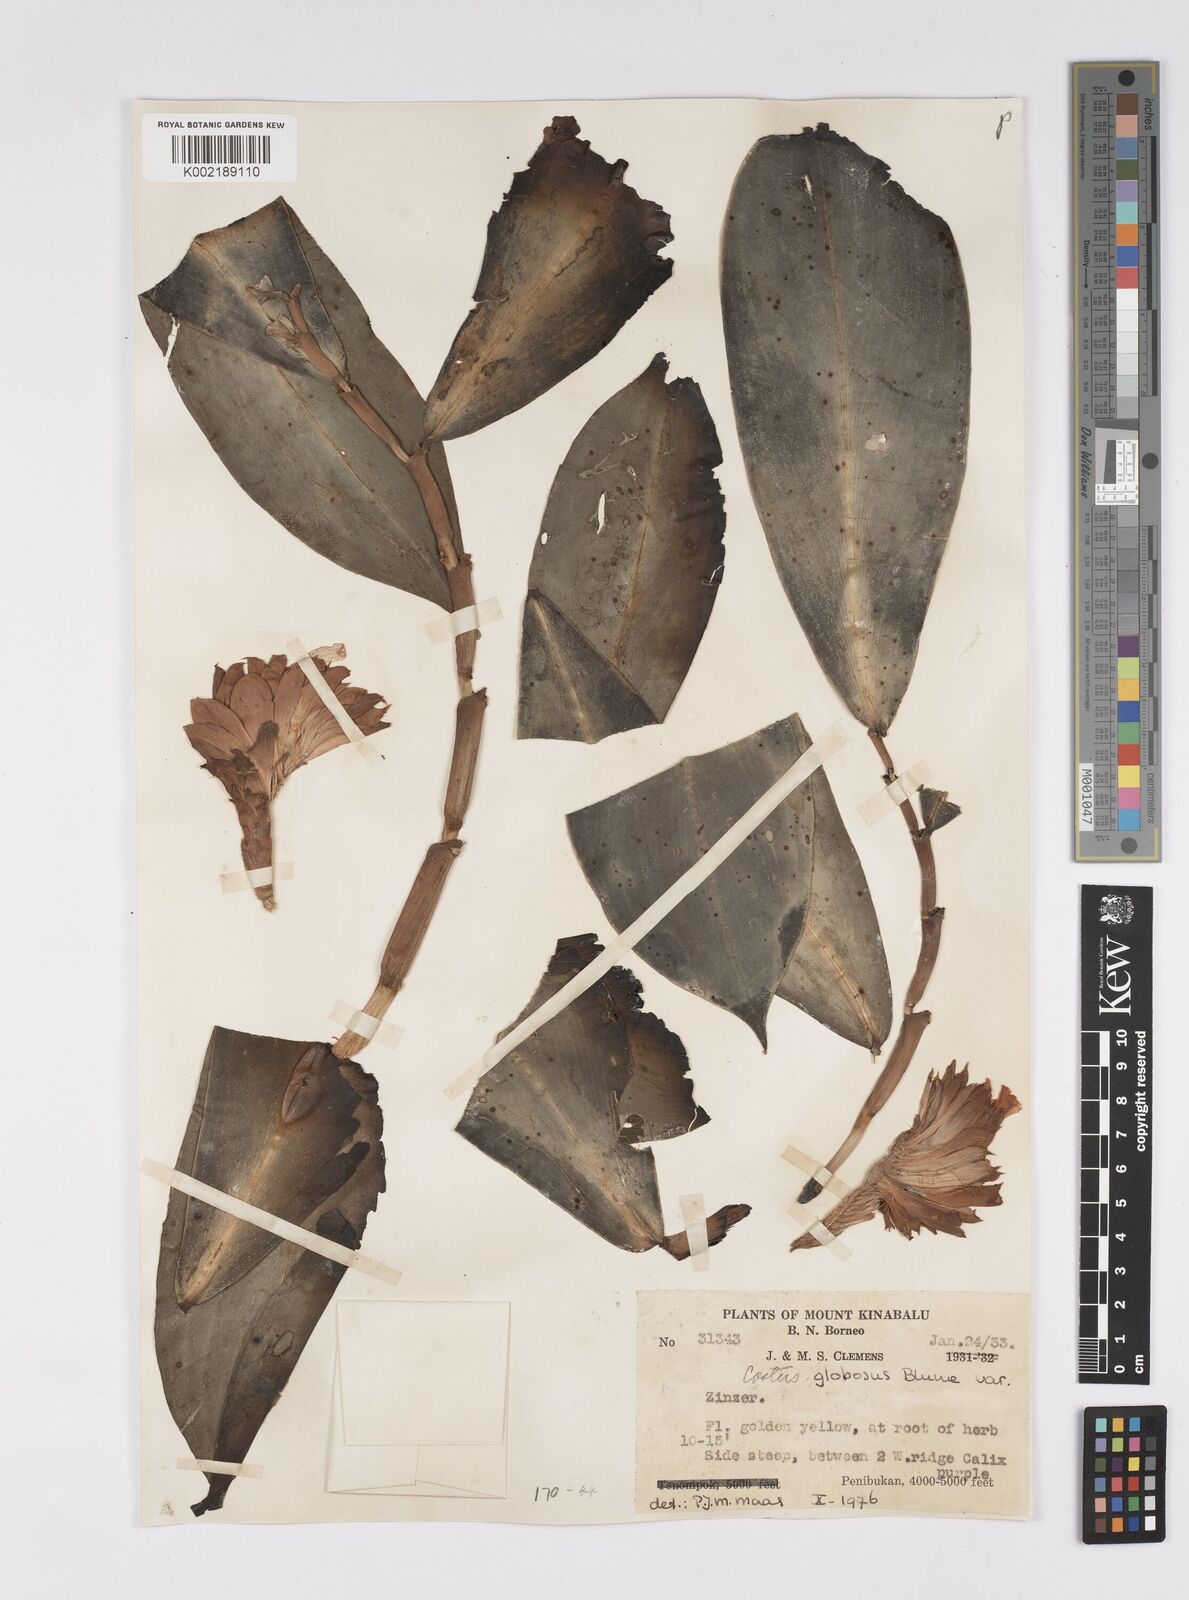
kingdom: Plantae
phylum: Tracheophyta
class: Liliopsida
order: Zingiberales
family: Costaceae
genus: Hellenia
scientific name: Hellenia globosa
